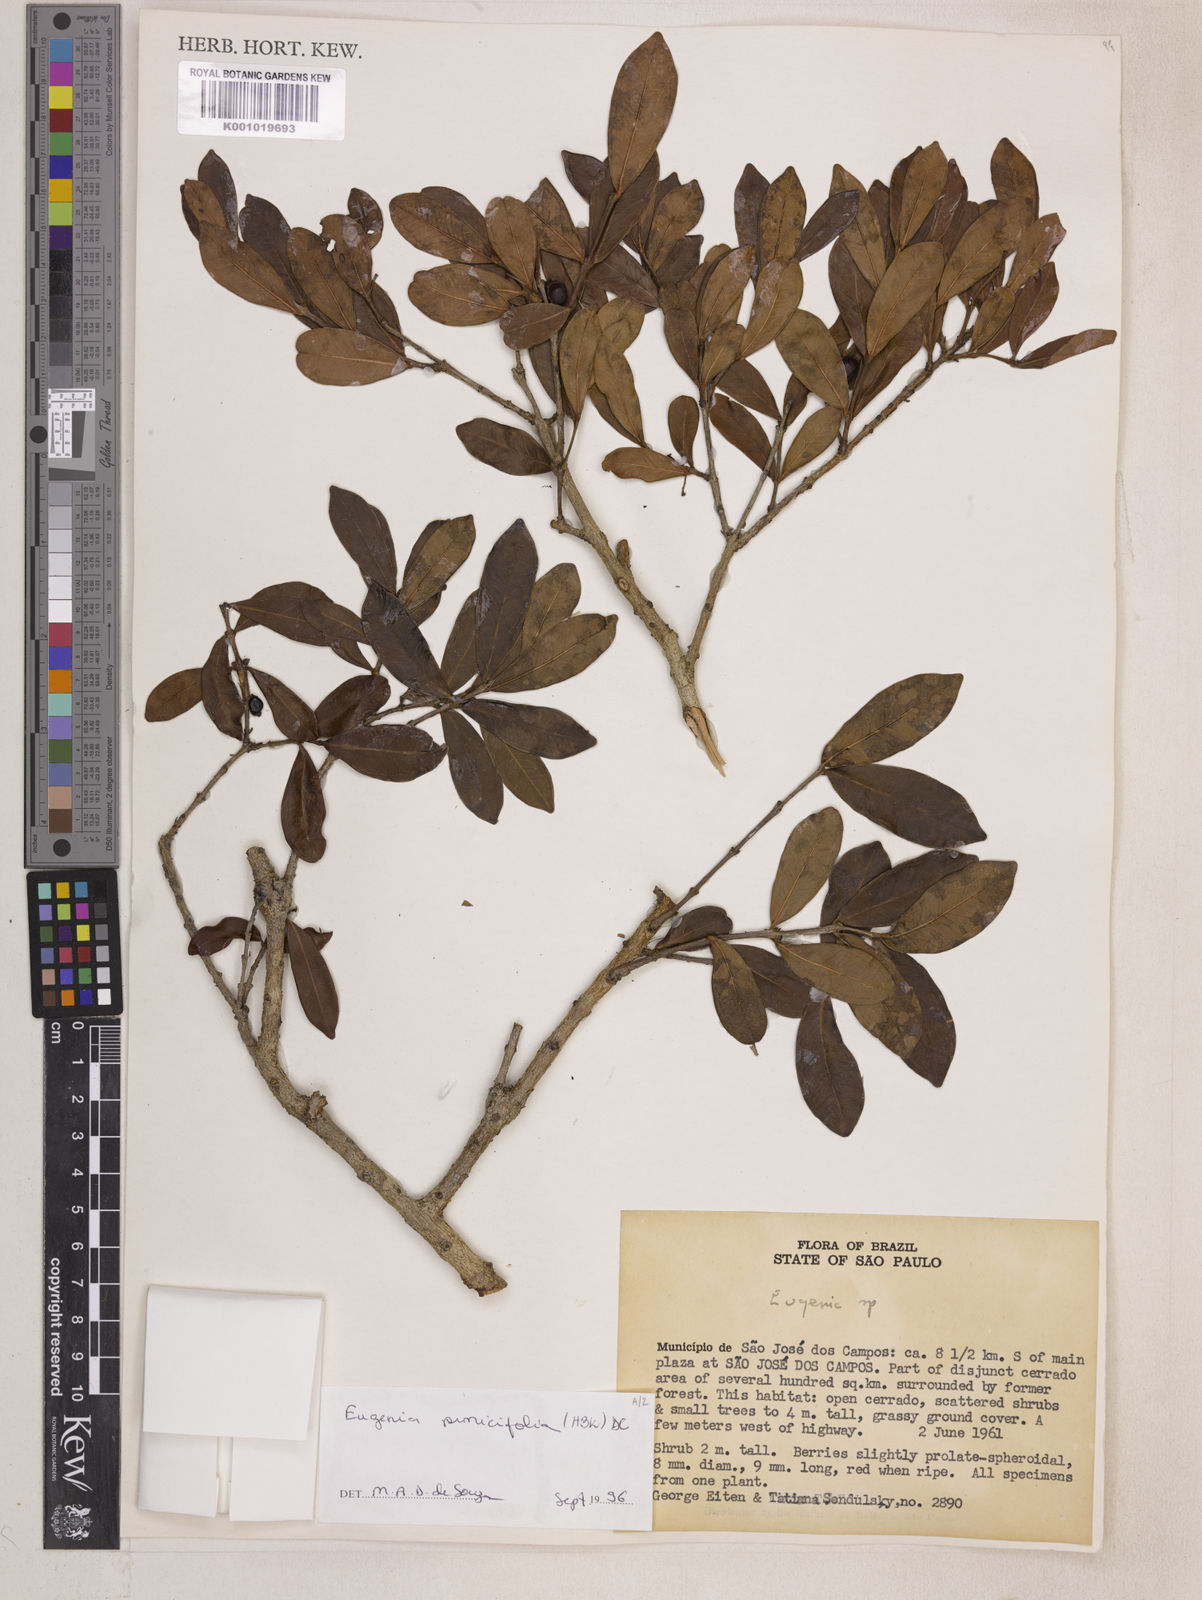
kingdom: Plantae
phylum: Tracheophyta
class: Magnoliopsida
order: Myrtales
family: Myrtaceae
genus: Eugenia
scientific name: Eugenia punicifolia
